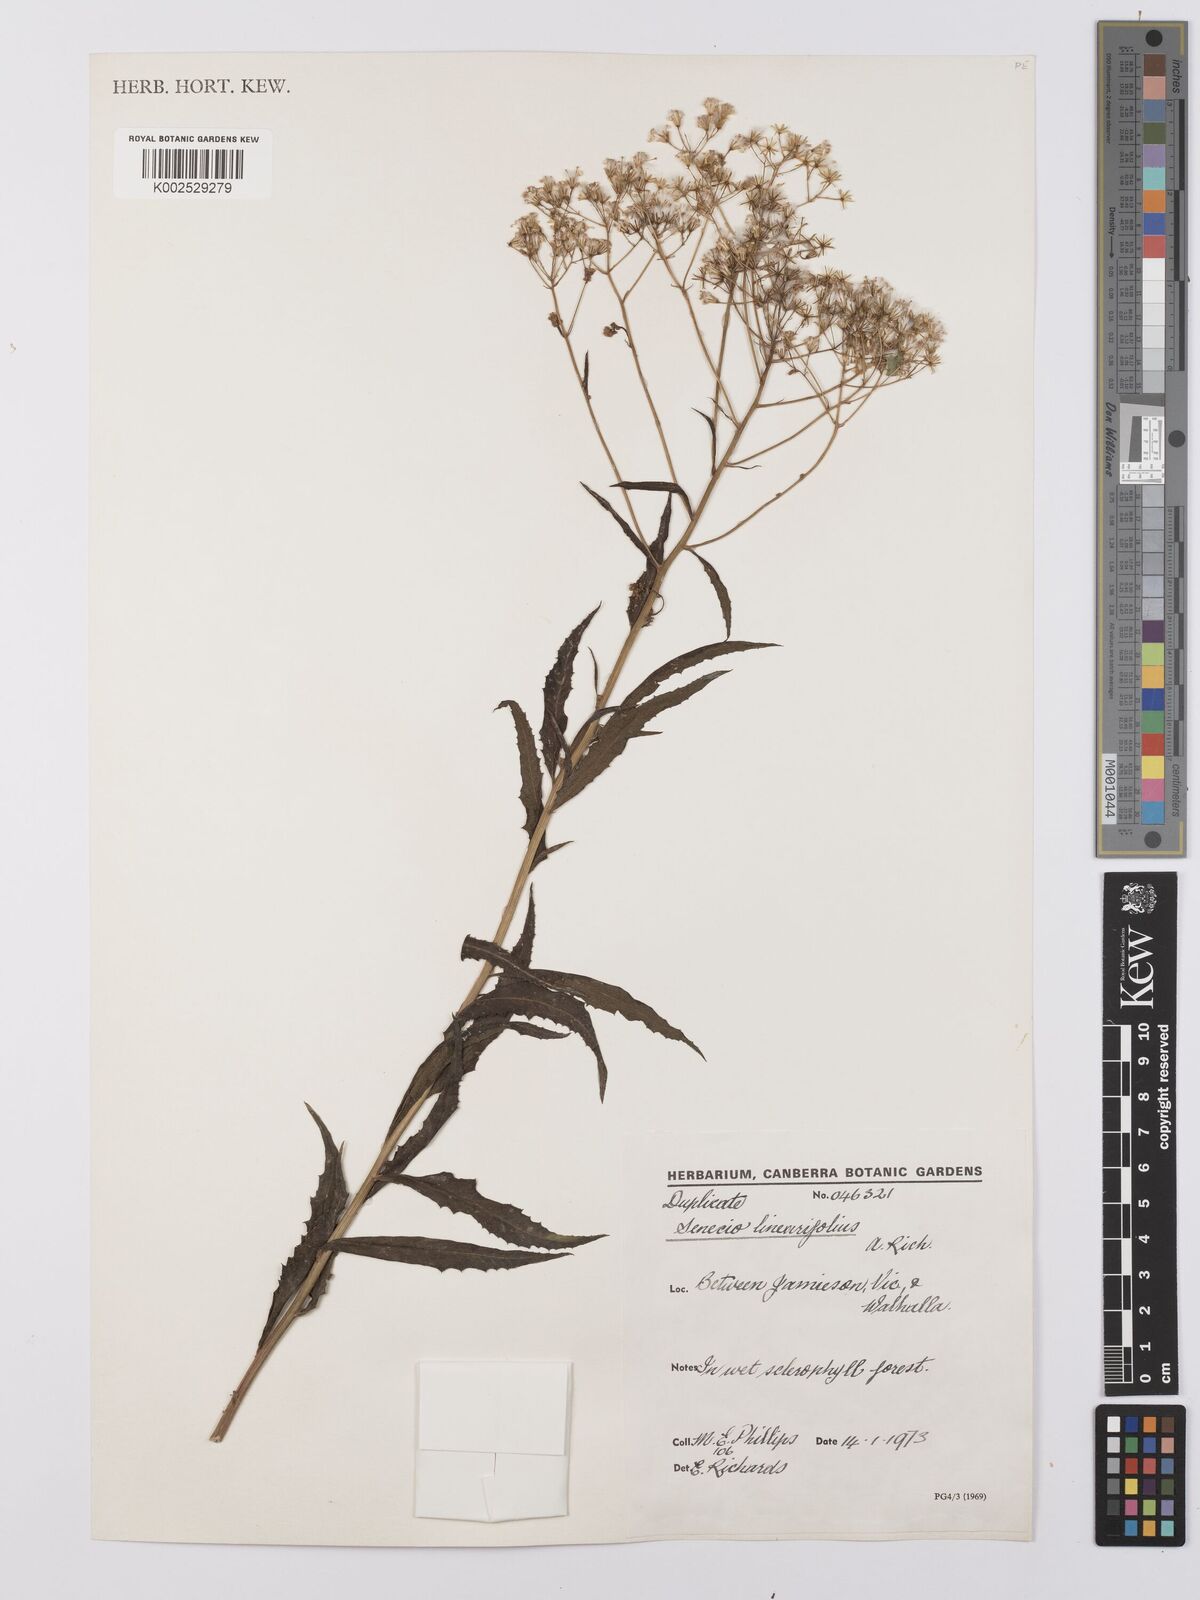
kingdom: Plantae
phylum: Tracheophyta
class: Magnoliopsida
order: Asterales
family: Asteraceae
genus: Senecio
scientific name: Senecio
